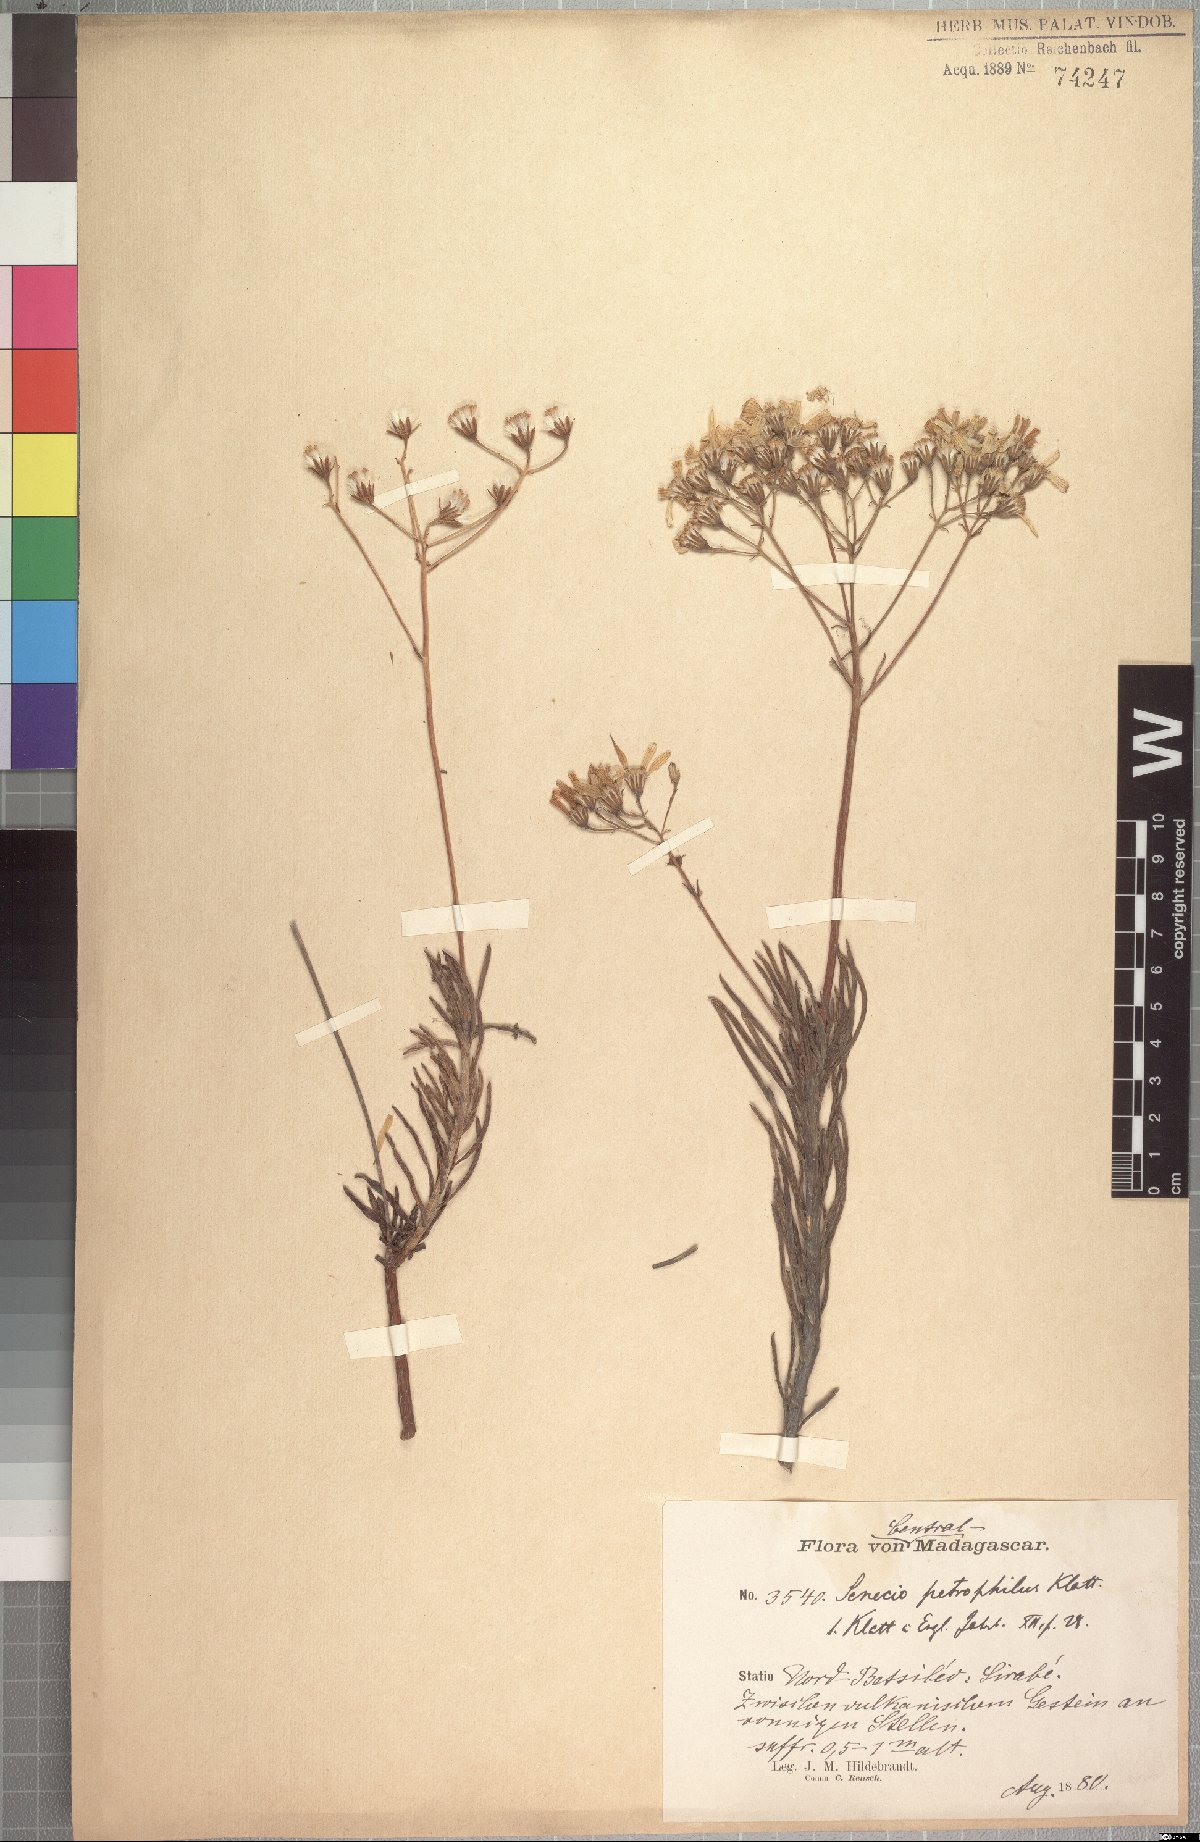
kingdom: Plantae
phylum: Tracheophyta
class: Magnoliopsida
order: Asterales
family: Asteraceae
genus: Senecio
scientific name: Senecio canaliculatus
